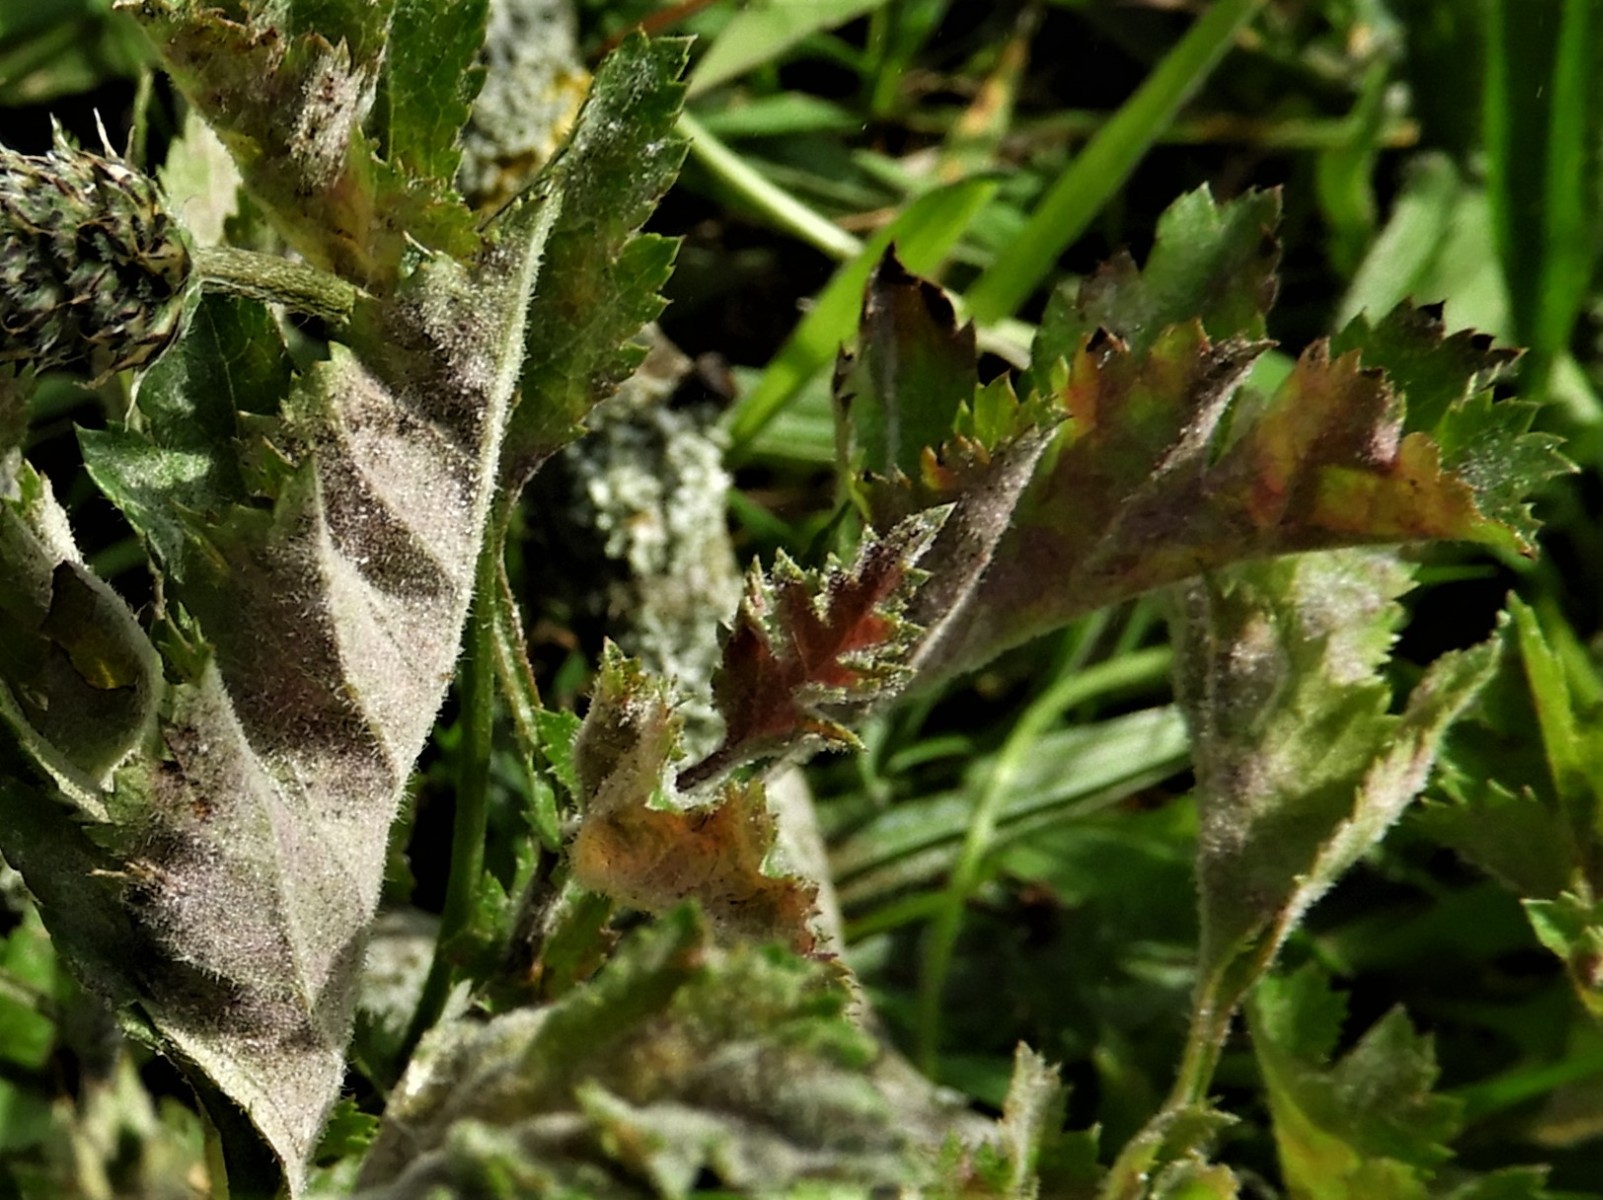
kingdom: Fungi
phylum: Ascomycota
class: Leotiomycetes
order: Helotiales
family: Erysiphaceae
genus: Podosphaera
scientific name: Podosphaera clandestina
